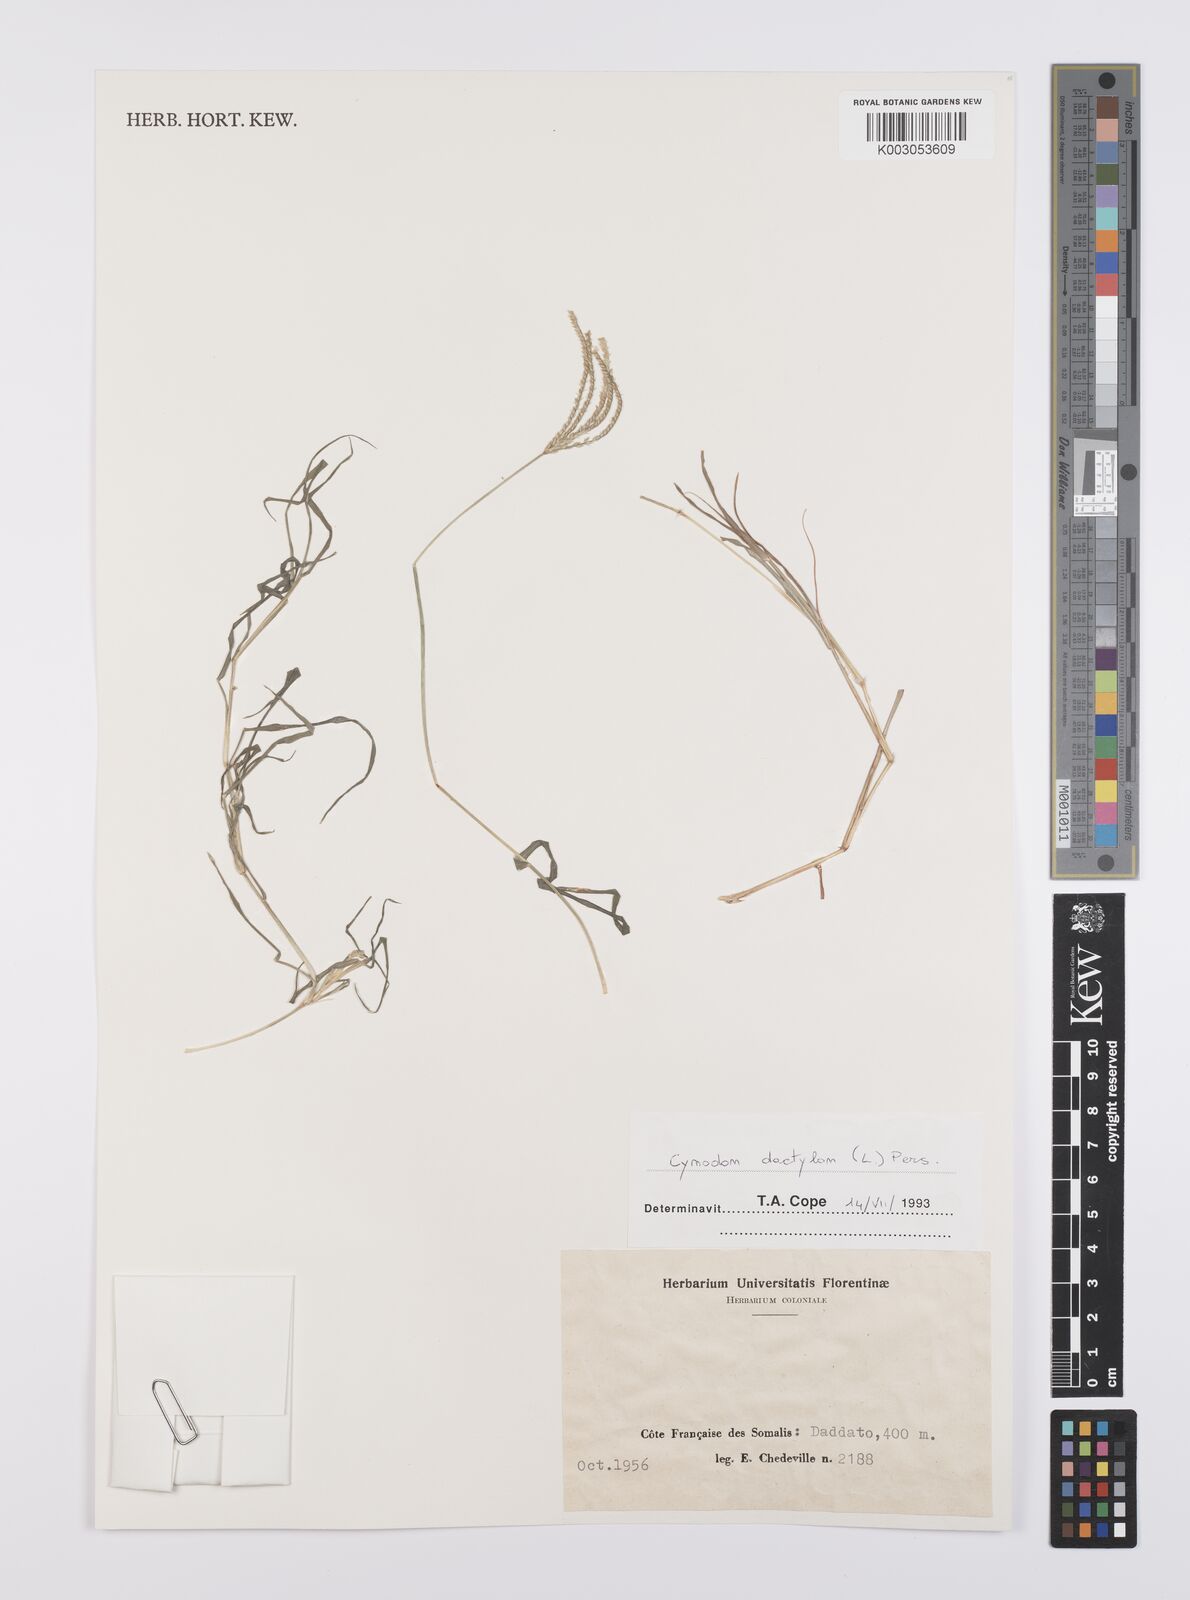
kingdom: Plantae
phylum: Tracheophyta
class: Liliopsida
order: Poales
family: Poaceae
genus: Cynodon
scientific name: Cynodon dactylon
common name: Bermuda grass
